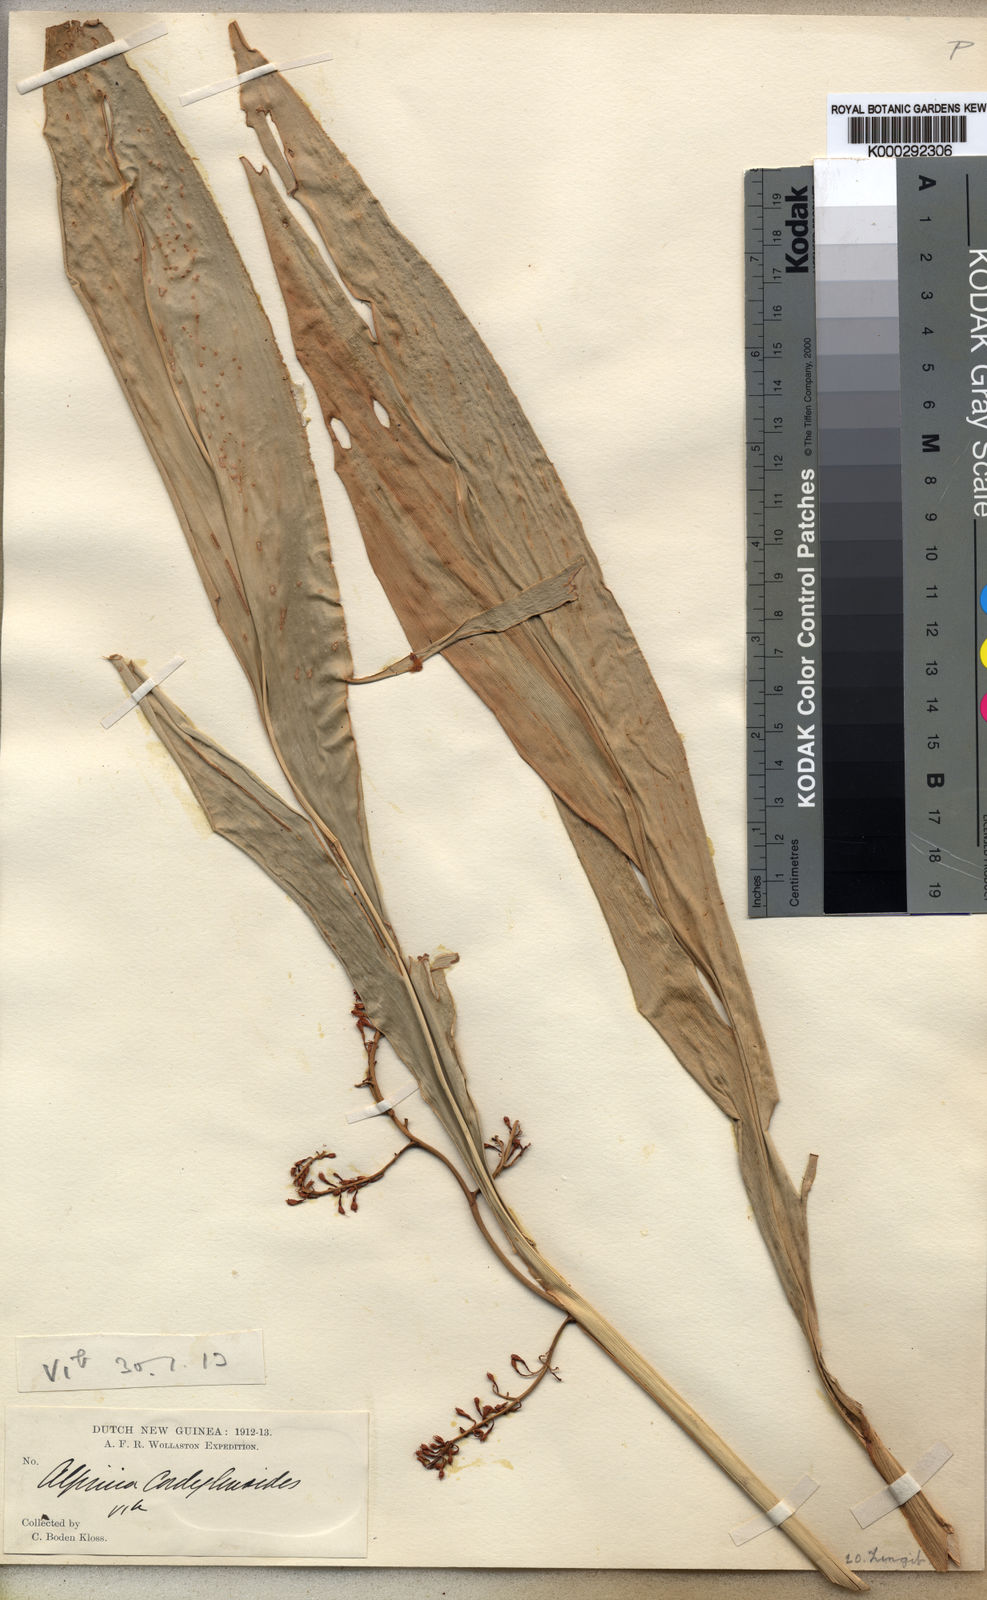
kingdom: Plantae
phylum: Tracheophyta
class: Liliopsida
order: Zingiberales
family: Zingiberaceae
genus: Riedelia
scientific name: Riedelia cordylinoides
